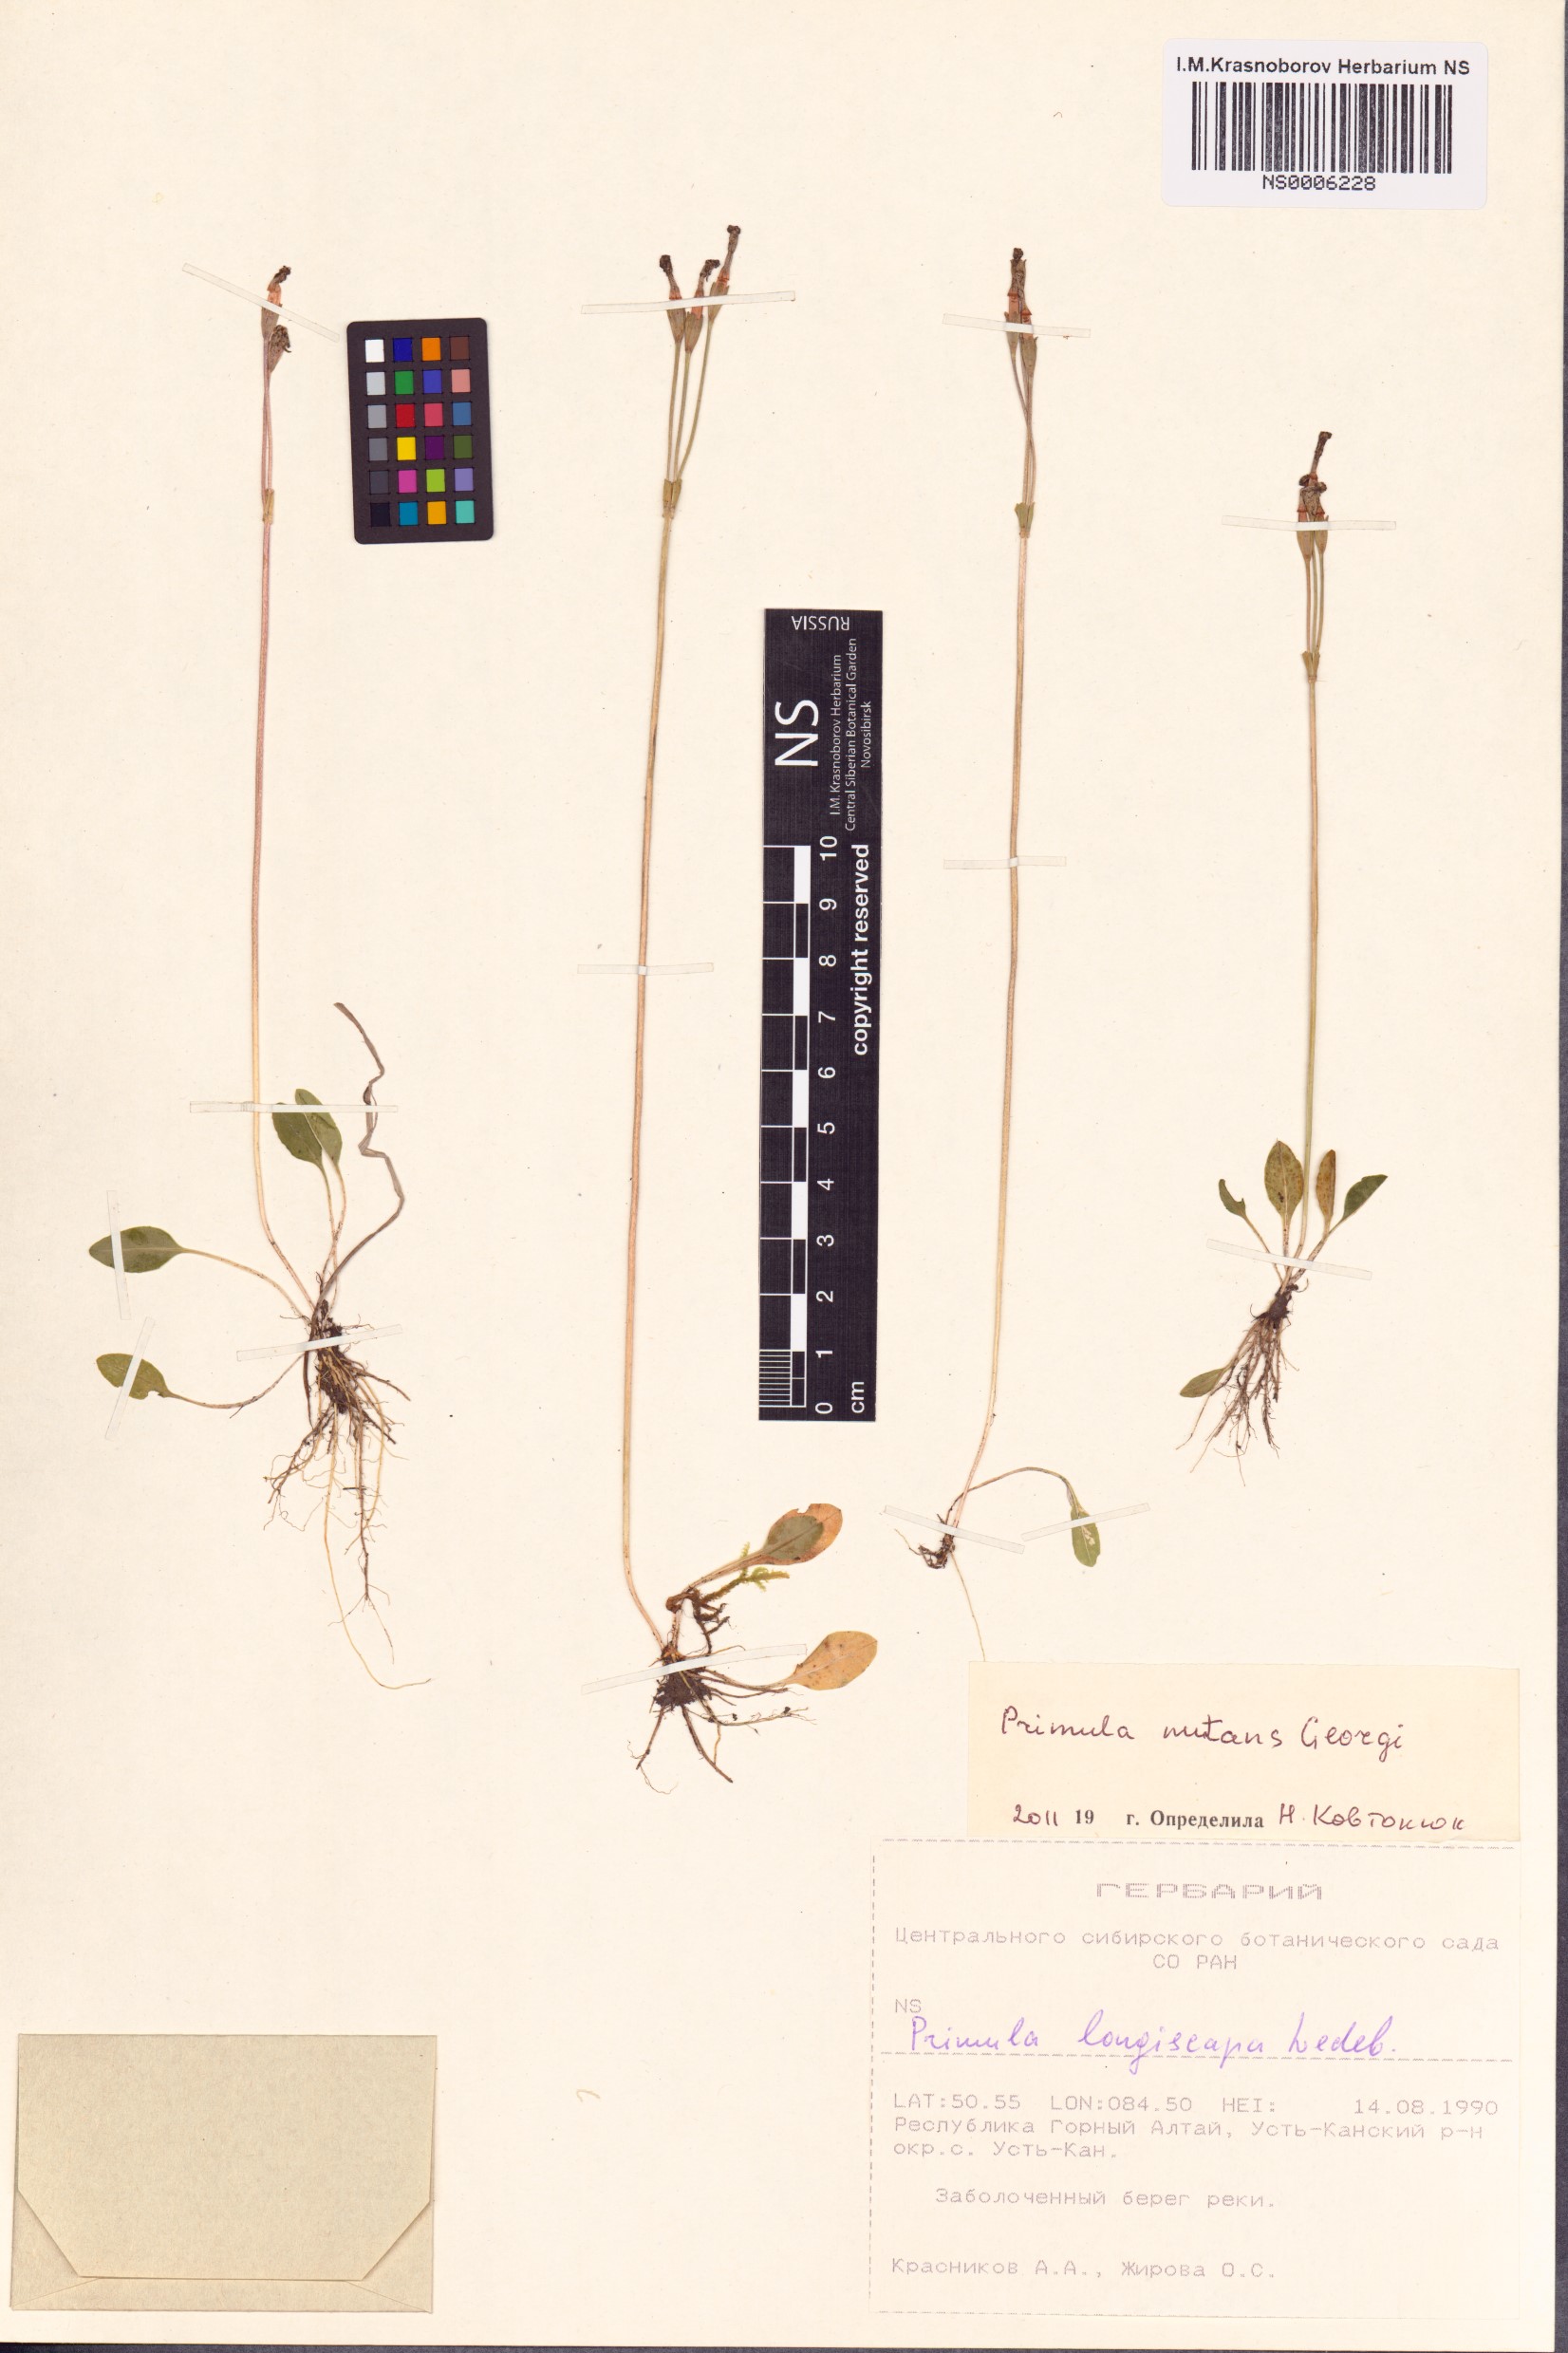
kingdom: Plantae
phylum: Tracheophyta
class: Magnoliopsida
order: Ericales
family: Primulaceae
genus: Primula
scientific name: Primula nutans
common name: Siberian primrose
